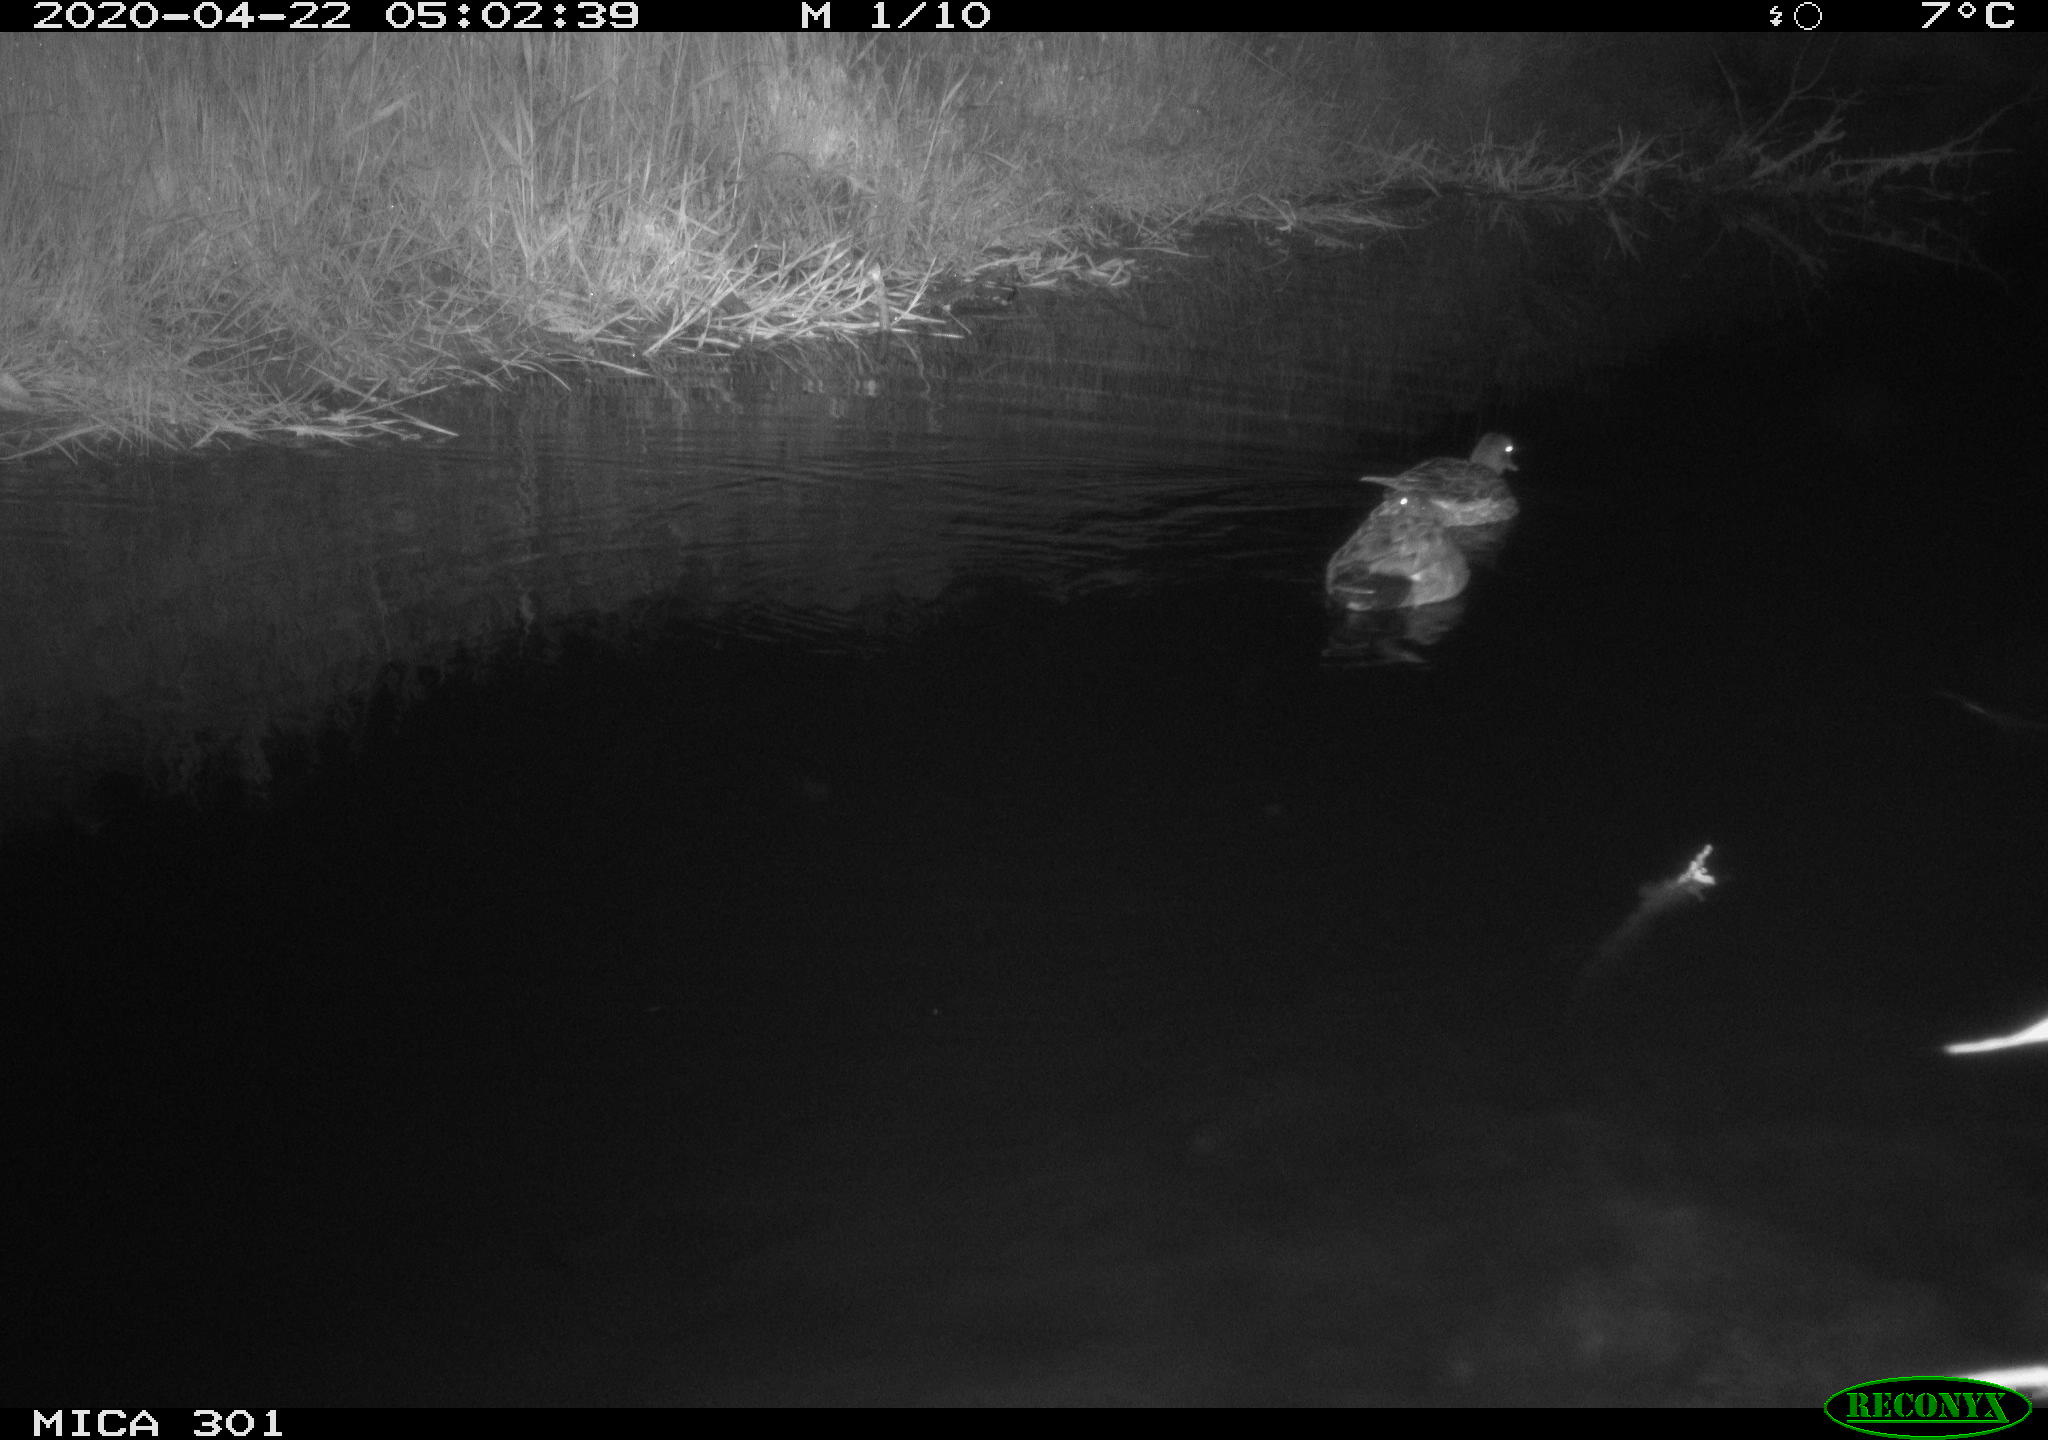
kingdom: Animalia
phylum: Chordata
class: Aves
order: Anseriformes
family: Anatidae
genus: Mareca
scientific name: Mareca strepera
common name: Gadwall
